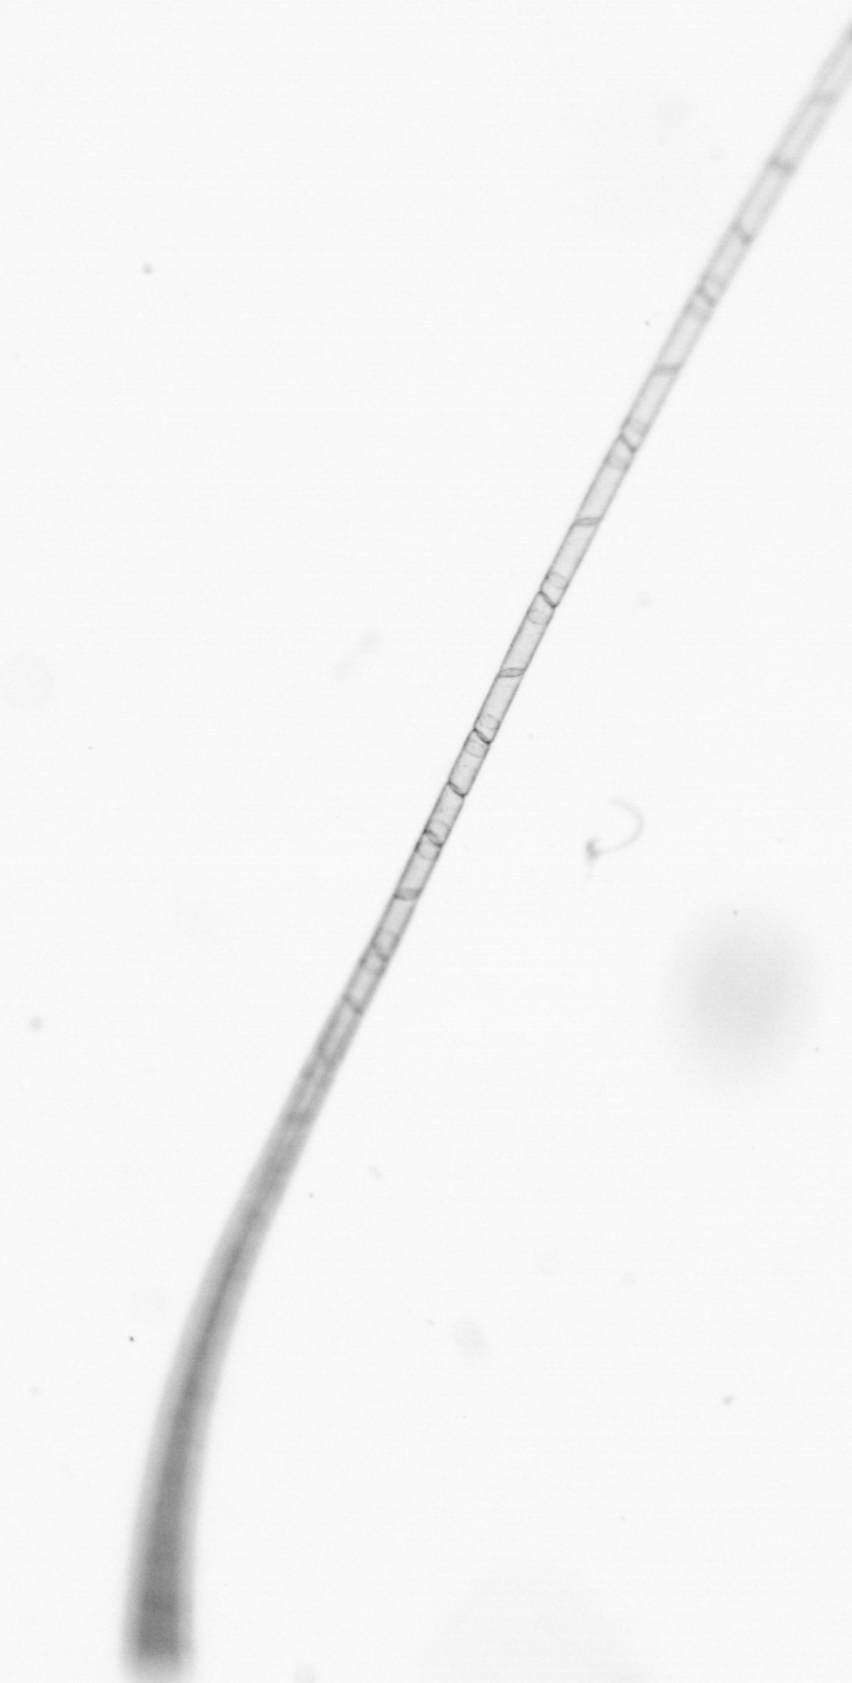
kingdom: Chromista
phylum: Ochrophyta
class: Bacillariophyceae
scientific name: Bacillariophyceae
